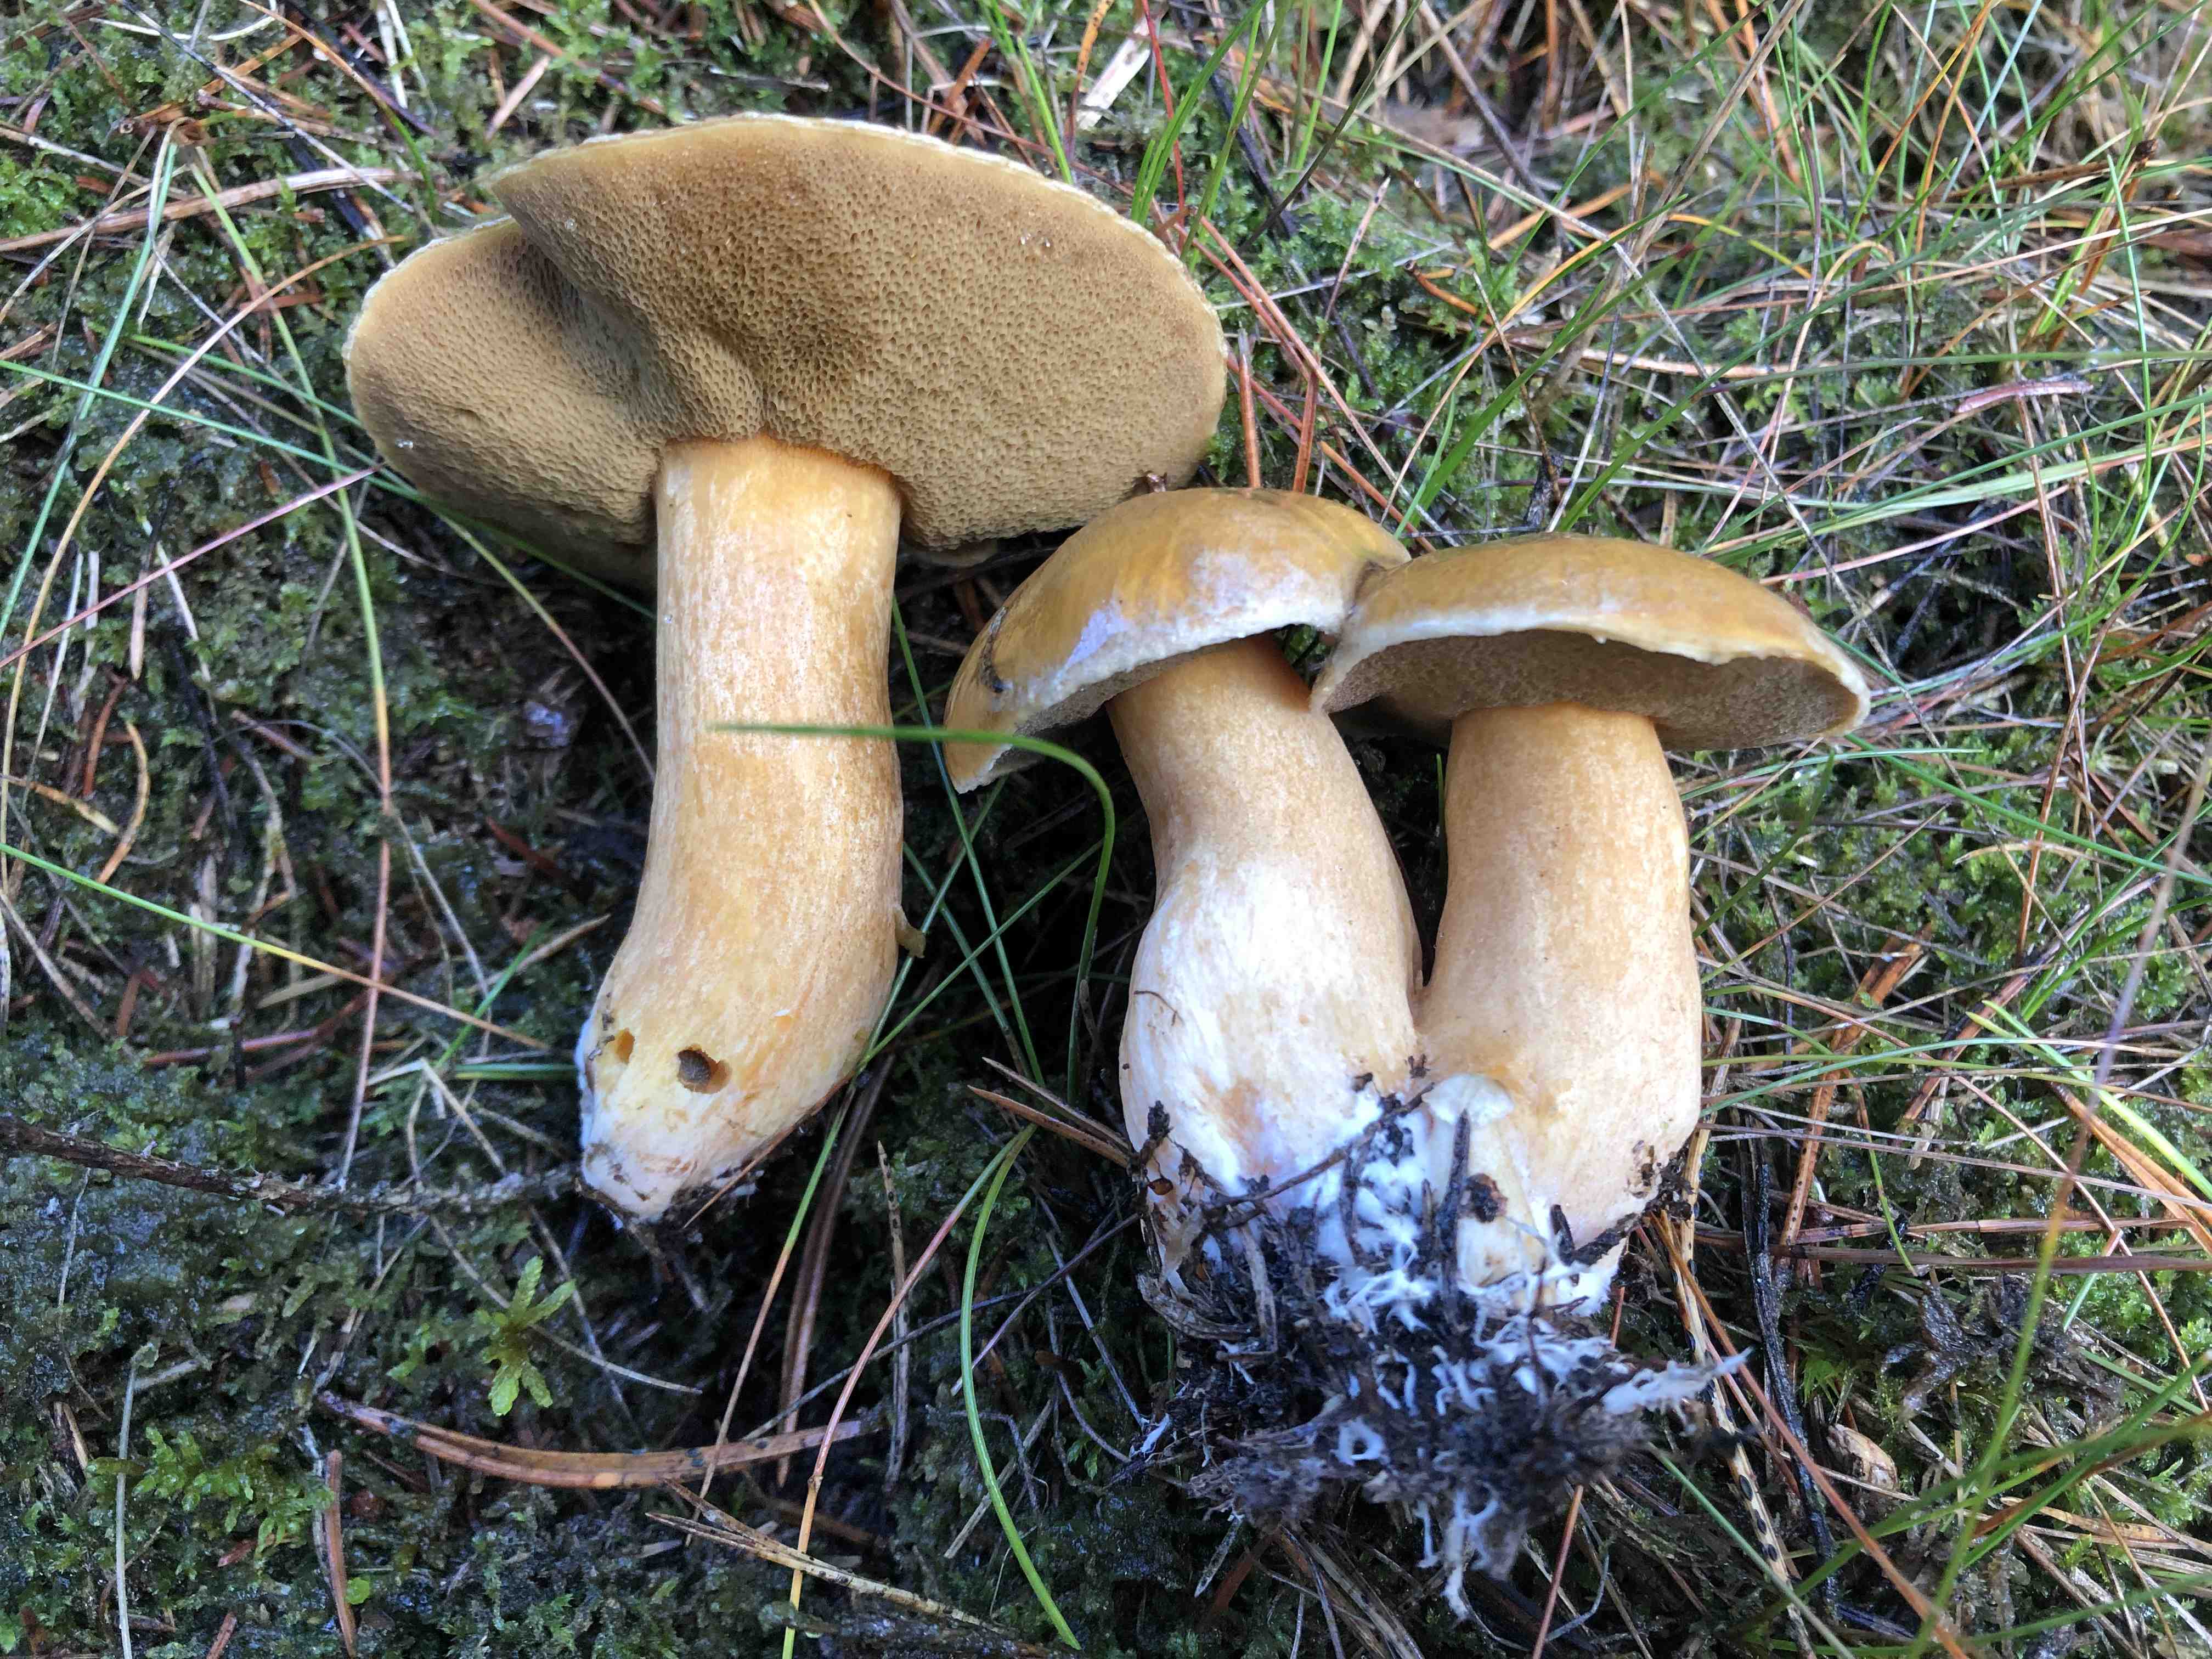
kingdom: Fungi
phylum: Basidiomycota
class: Agaricomycetes
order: Boletales
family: Suillaceae
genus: Suillus
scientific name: Suillus variegatus
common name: broget slimrørhat
